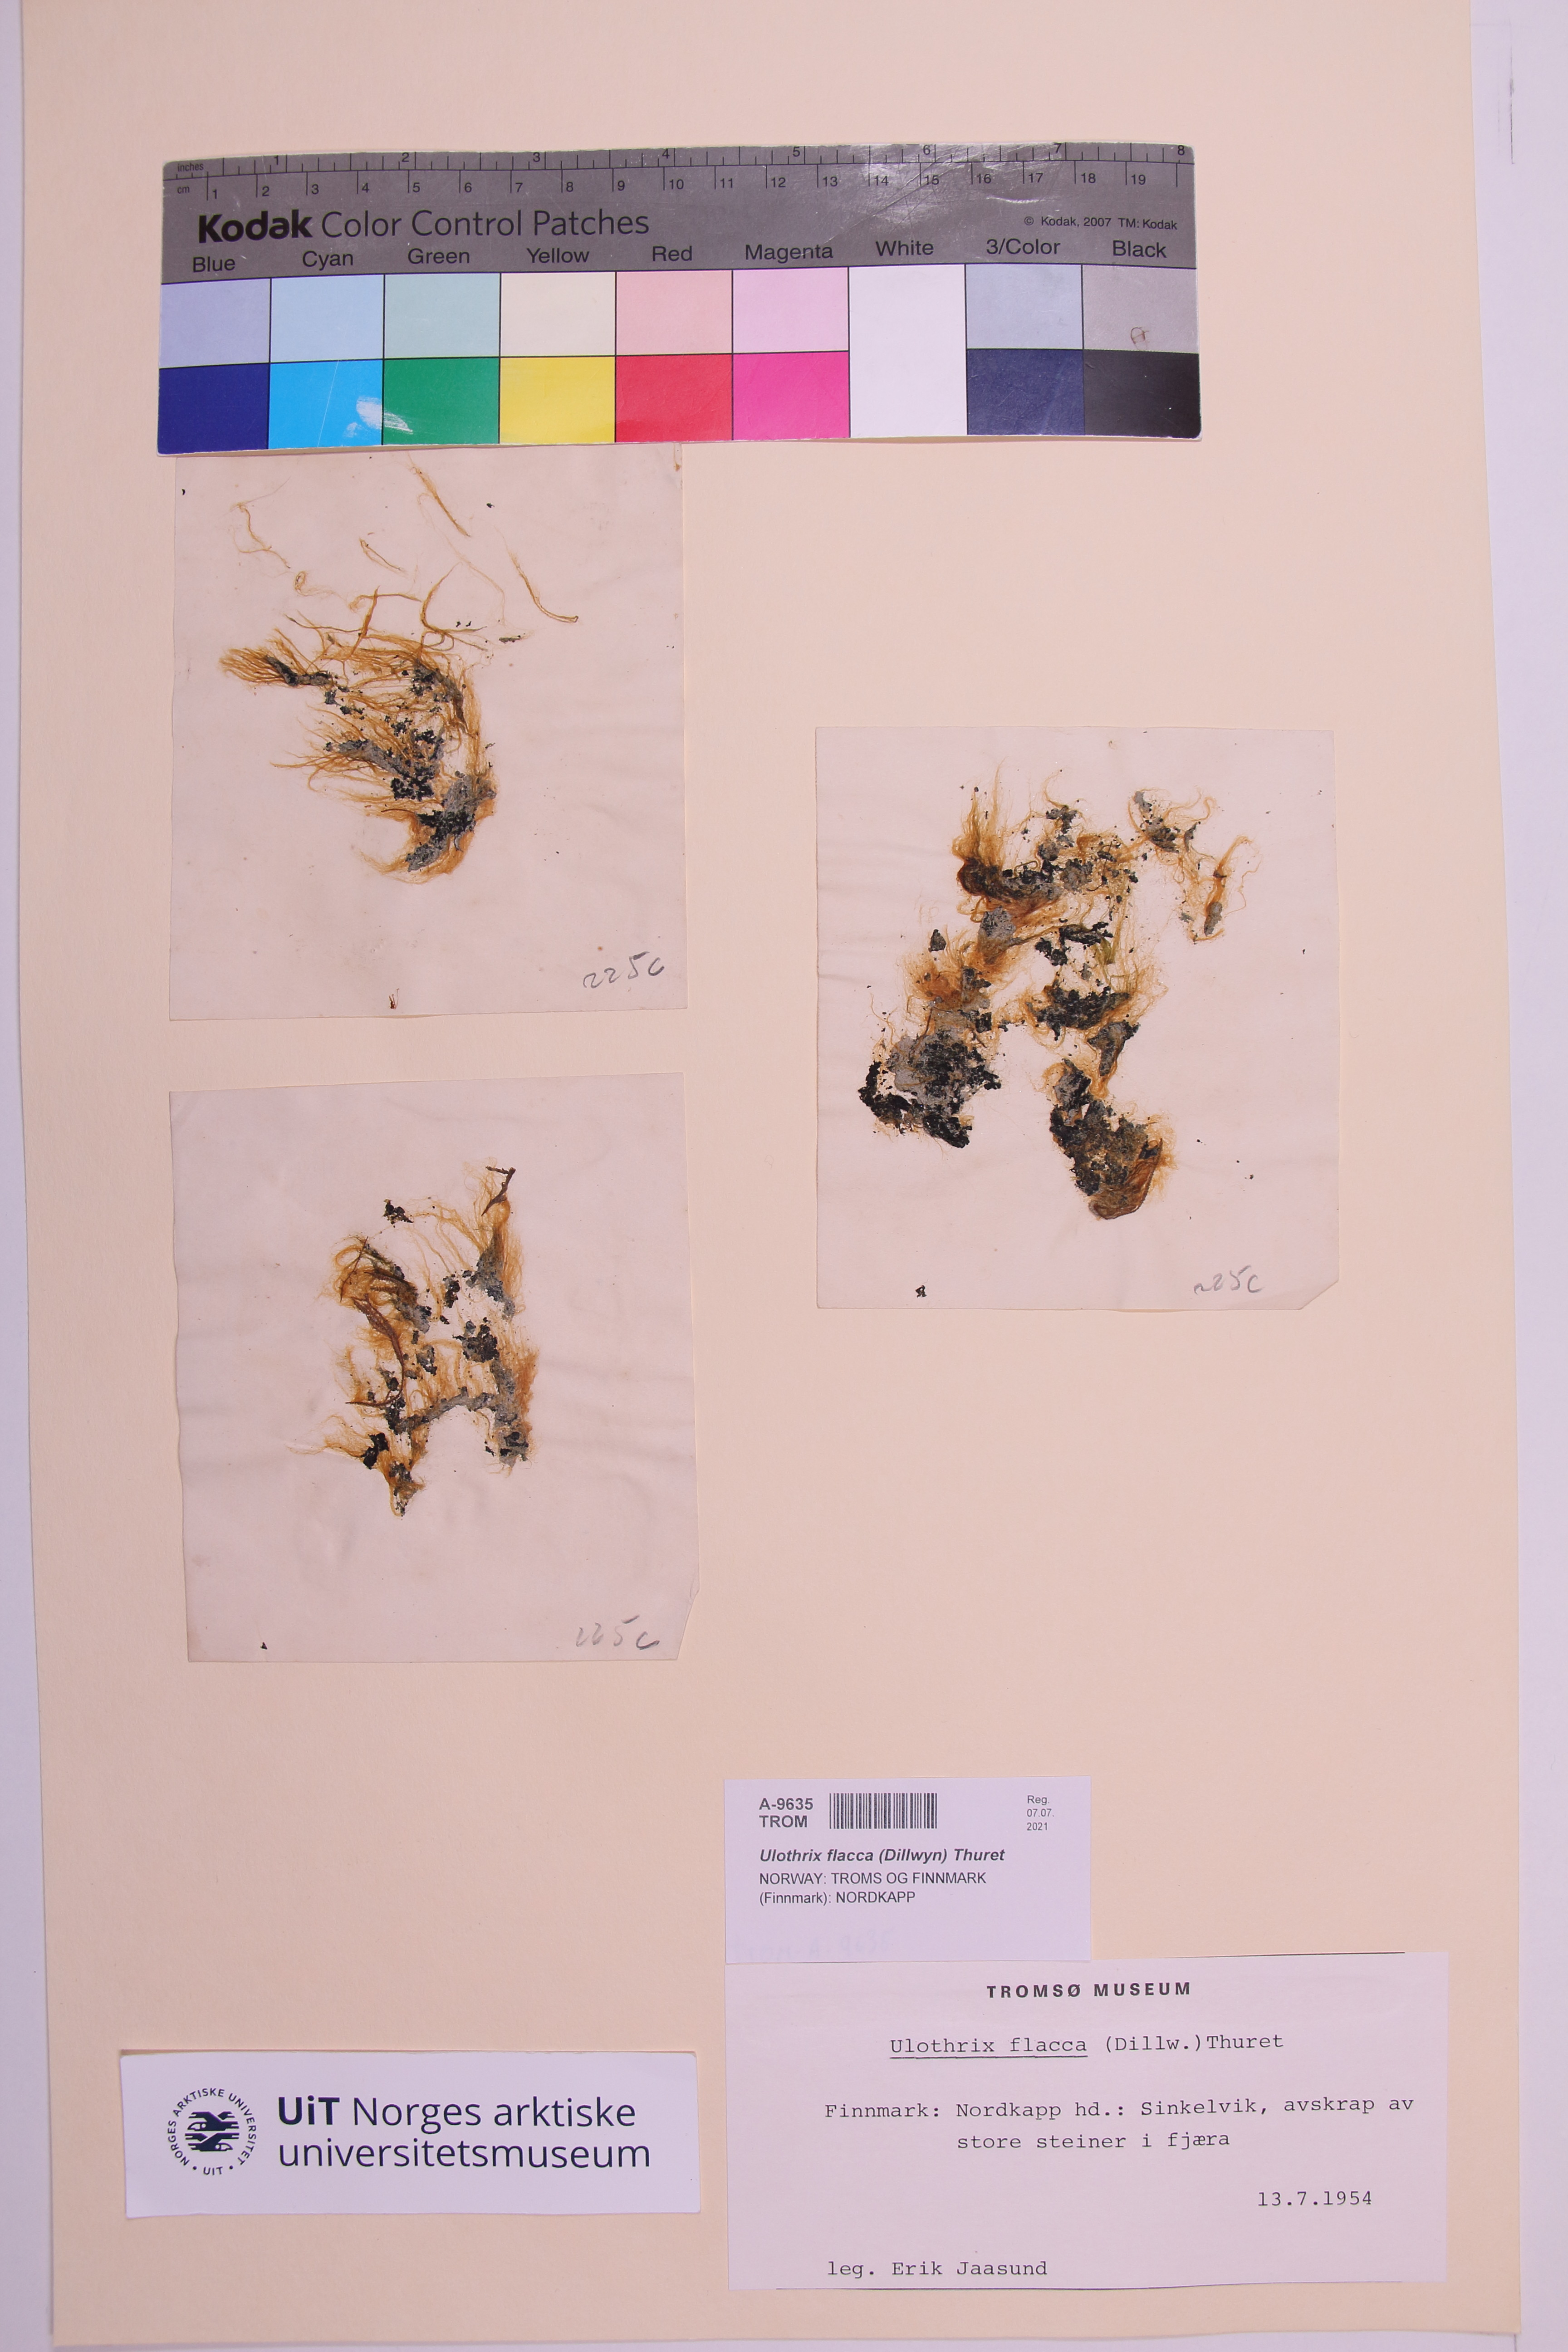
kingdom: Plantae
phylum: Chlorophyta
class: Ulvophyceae
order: Ulotrichales
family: Ulotrichaceae
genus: Ulothrix
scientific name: Ulothrix flacca
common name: Woolly hair
